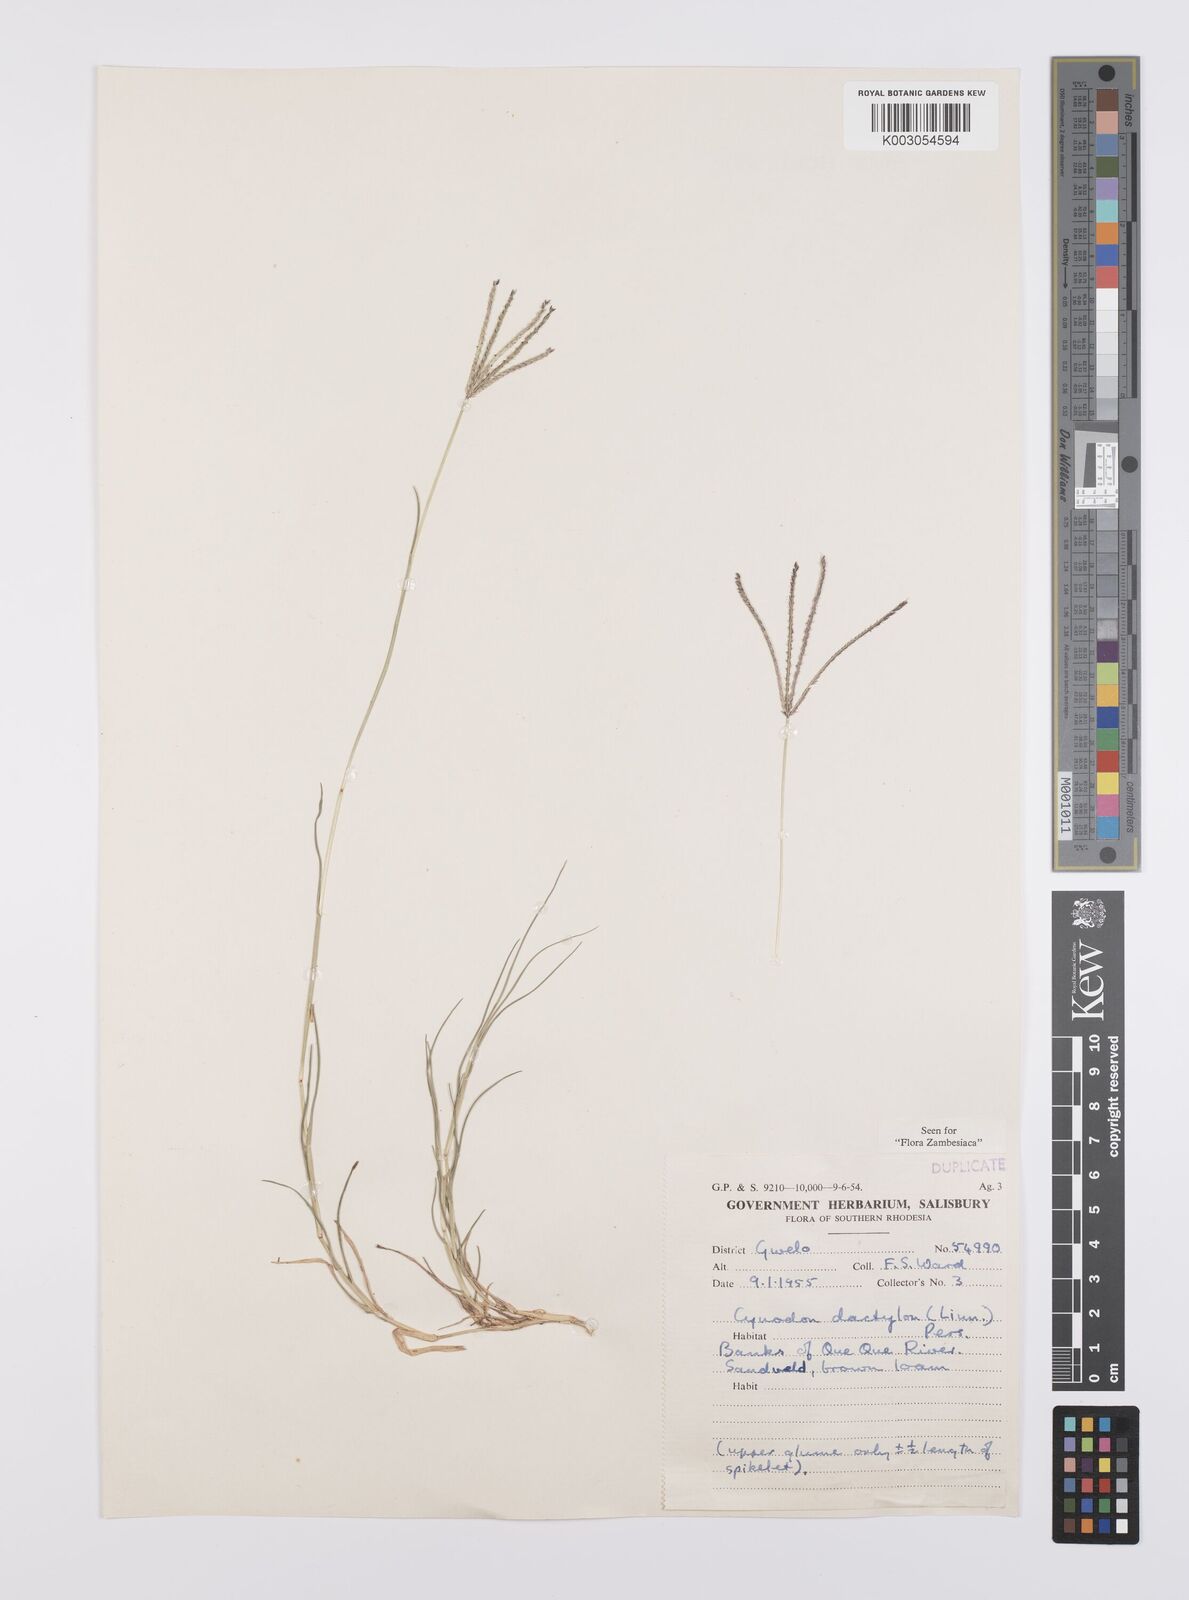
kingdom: Plantae
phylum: Tracheophyta
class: Liliopsida
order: Poales
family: Poaceae
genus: Cynodon
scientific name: Cynodon dactylon
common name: Bermuda grass
